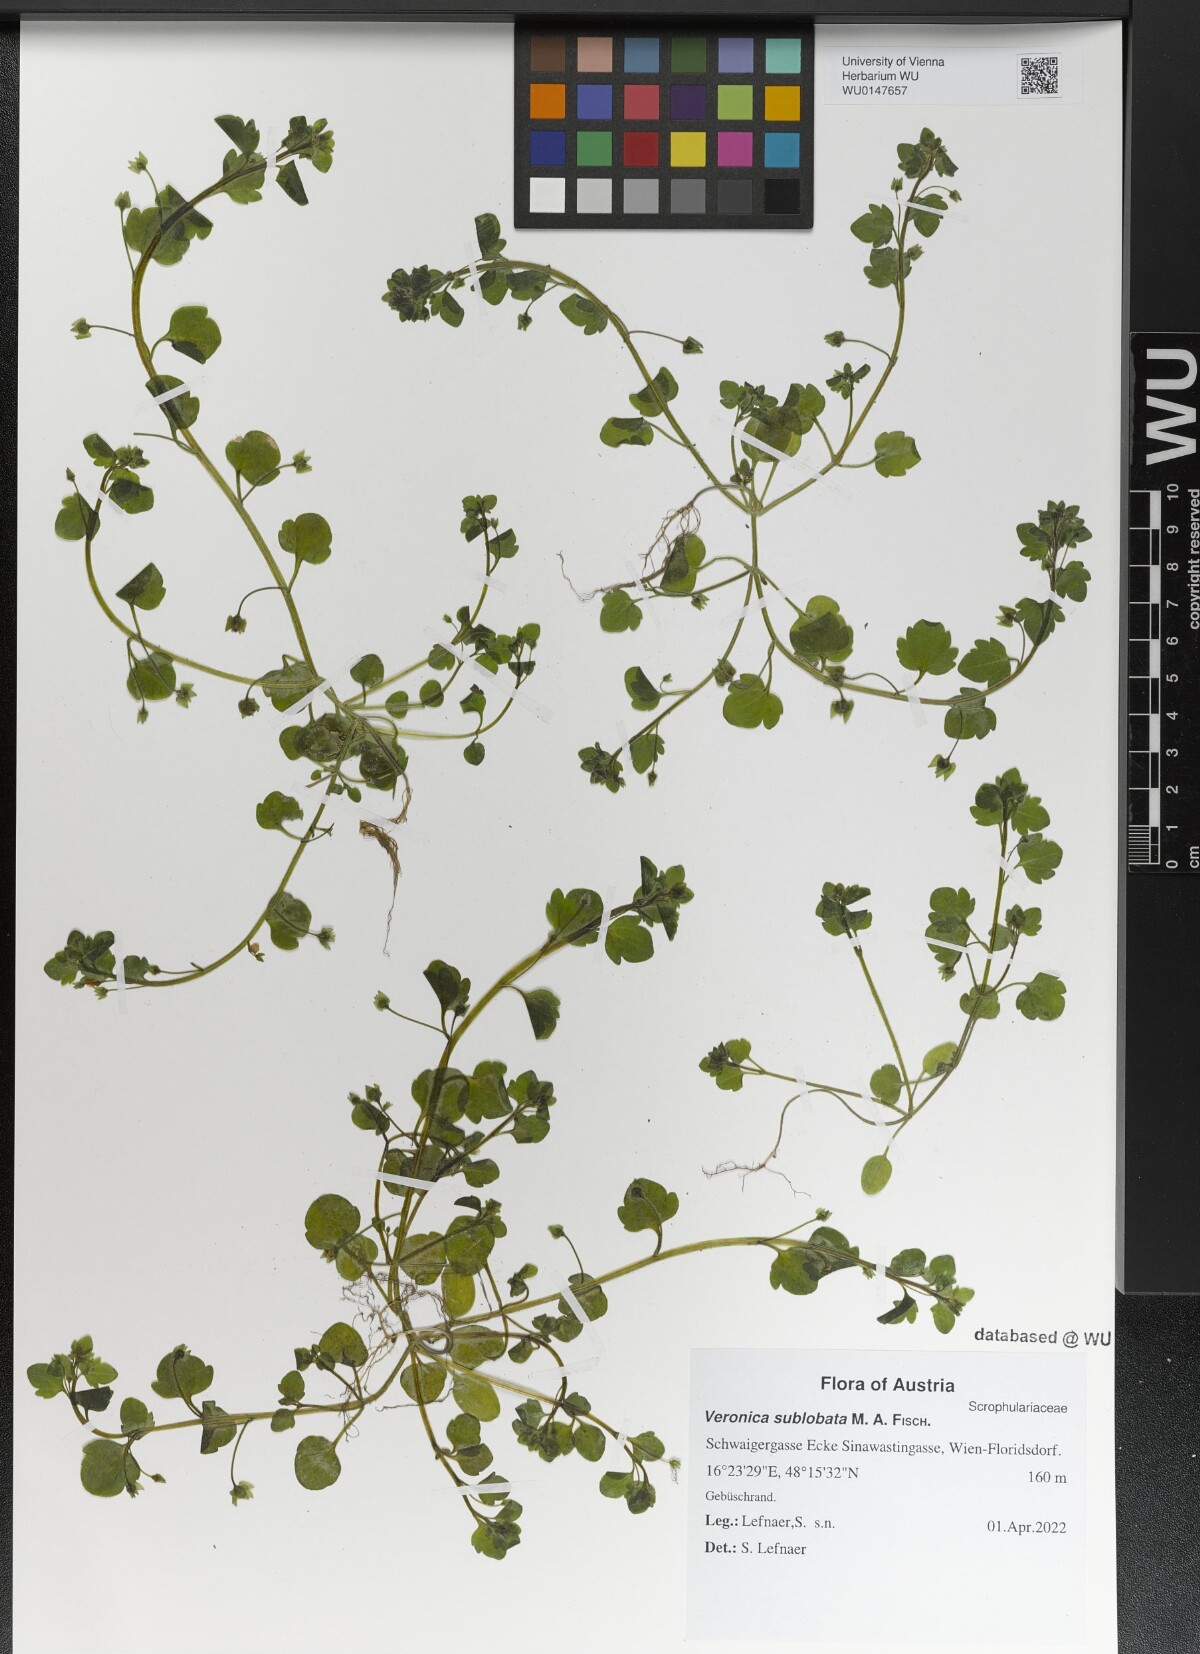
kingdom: Plantae
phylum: Tracheophyta
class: Magnoliopsida
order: Lamiales
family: Plantaginaceae
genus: Veronica
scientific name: Veronica sublobata
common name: False ivy-leaved speedwell
